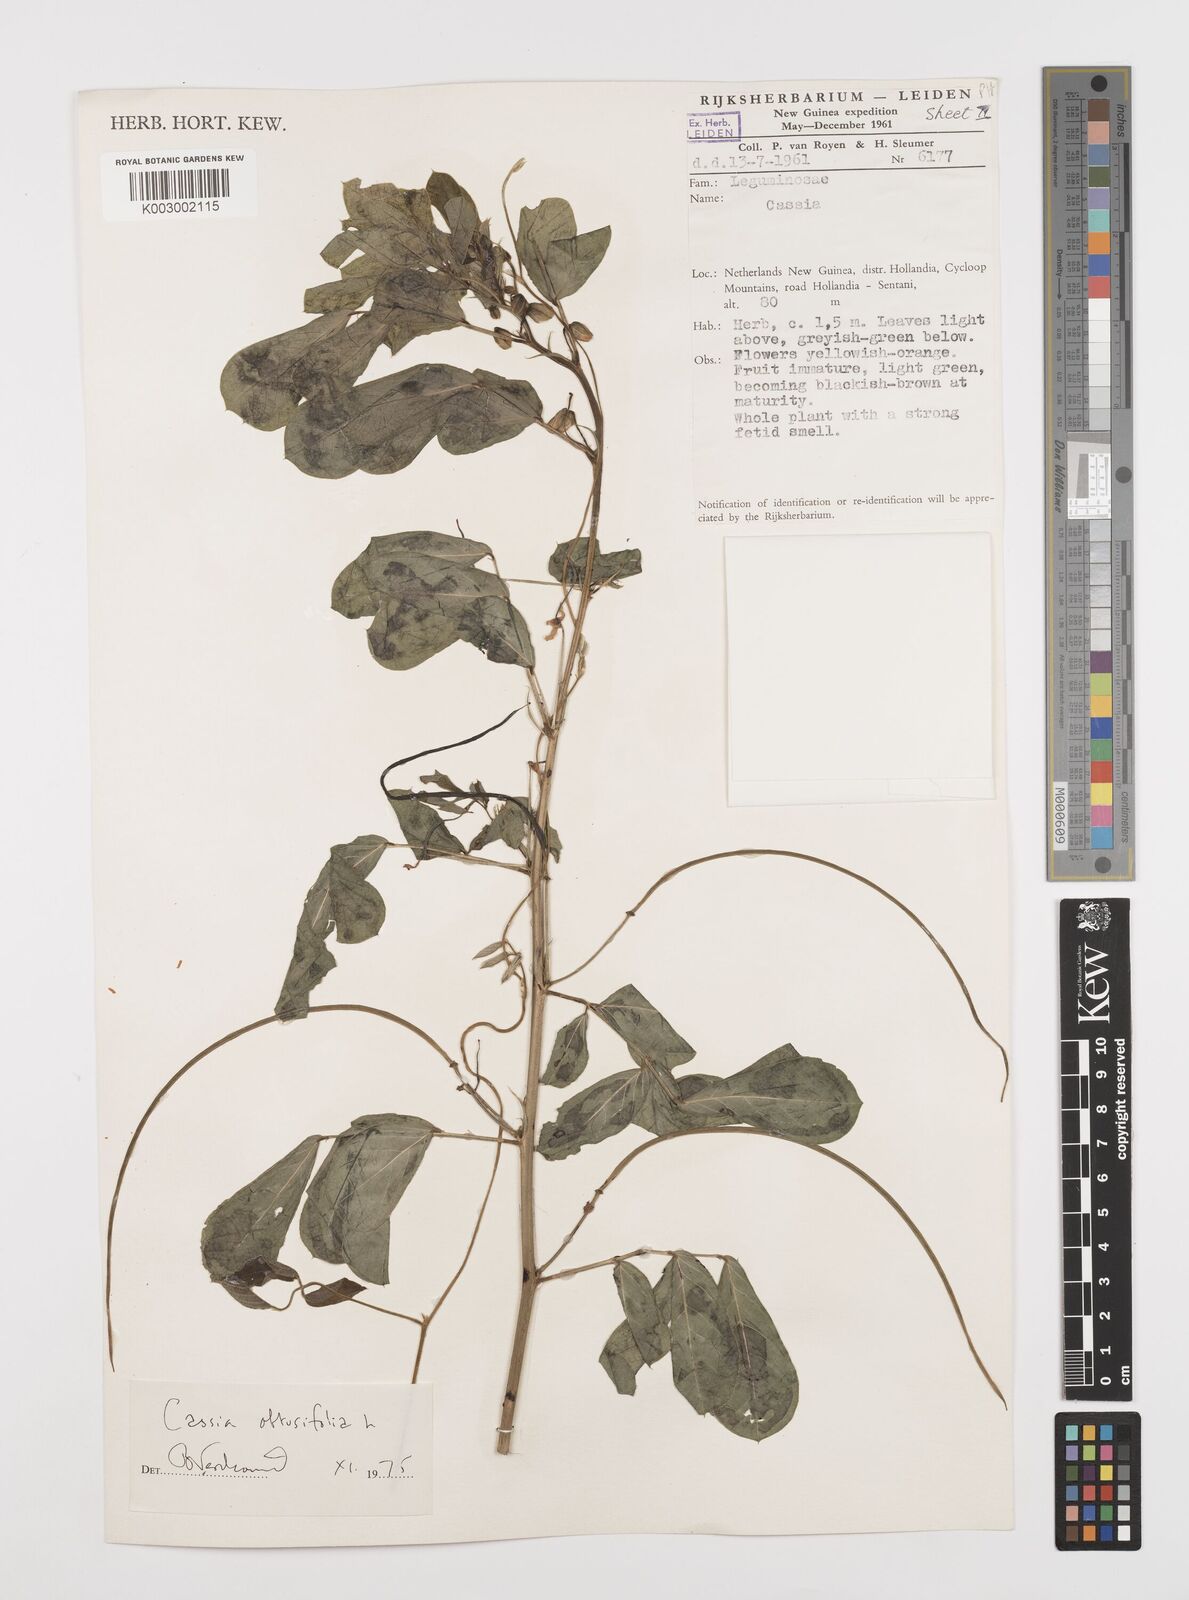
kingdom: Plantae
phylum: Tracheophyta
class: Magnoliopsida
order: Fabales
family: Fabaceae
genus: Senna
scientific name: Senna obtusifolia
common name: Java-bean
